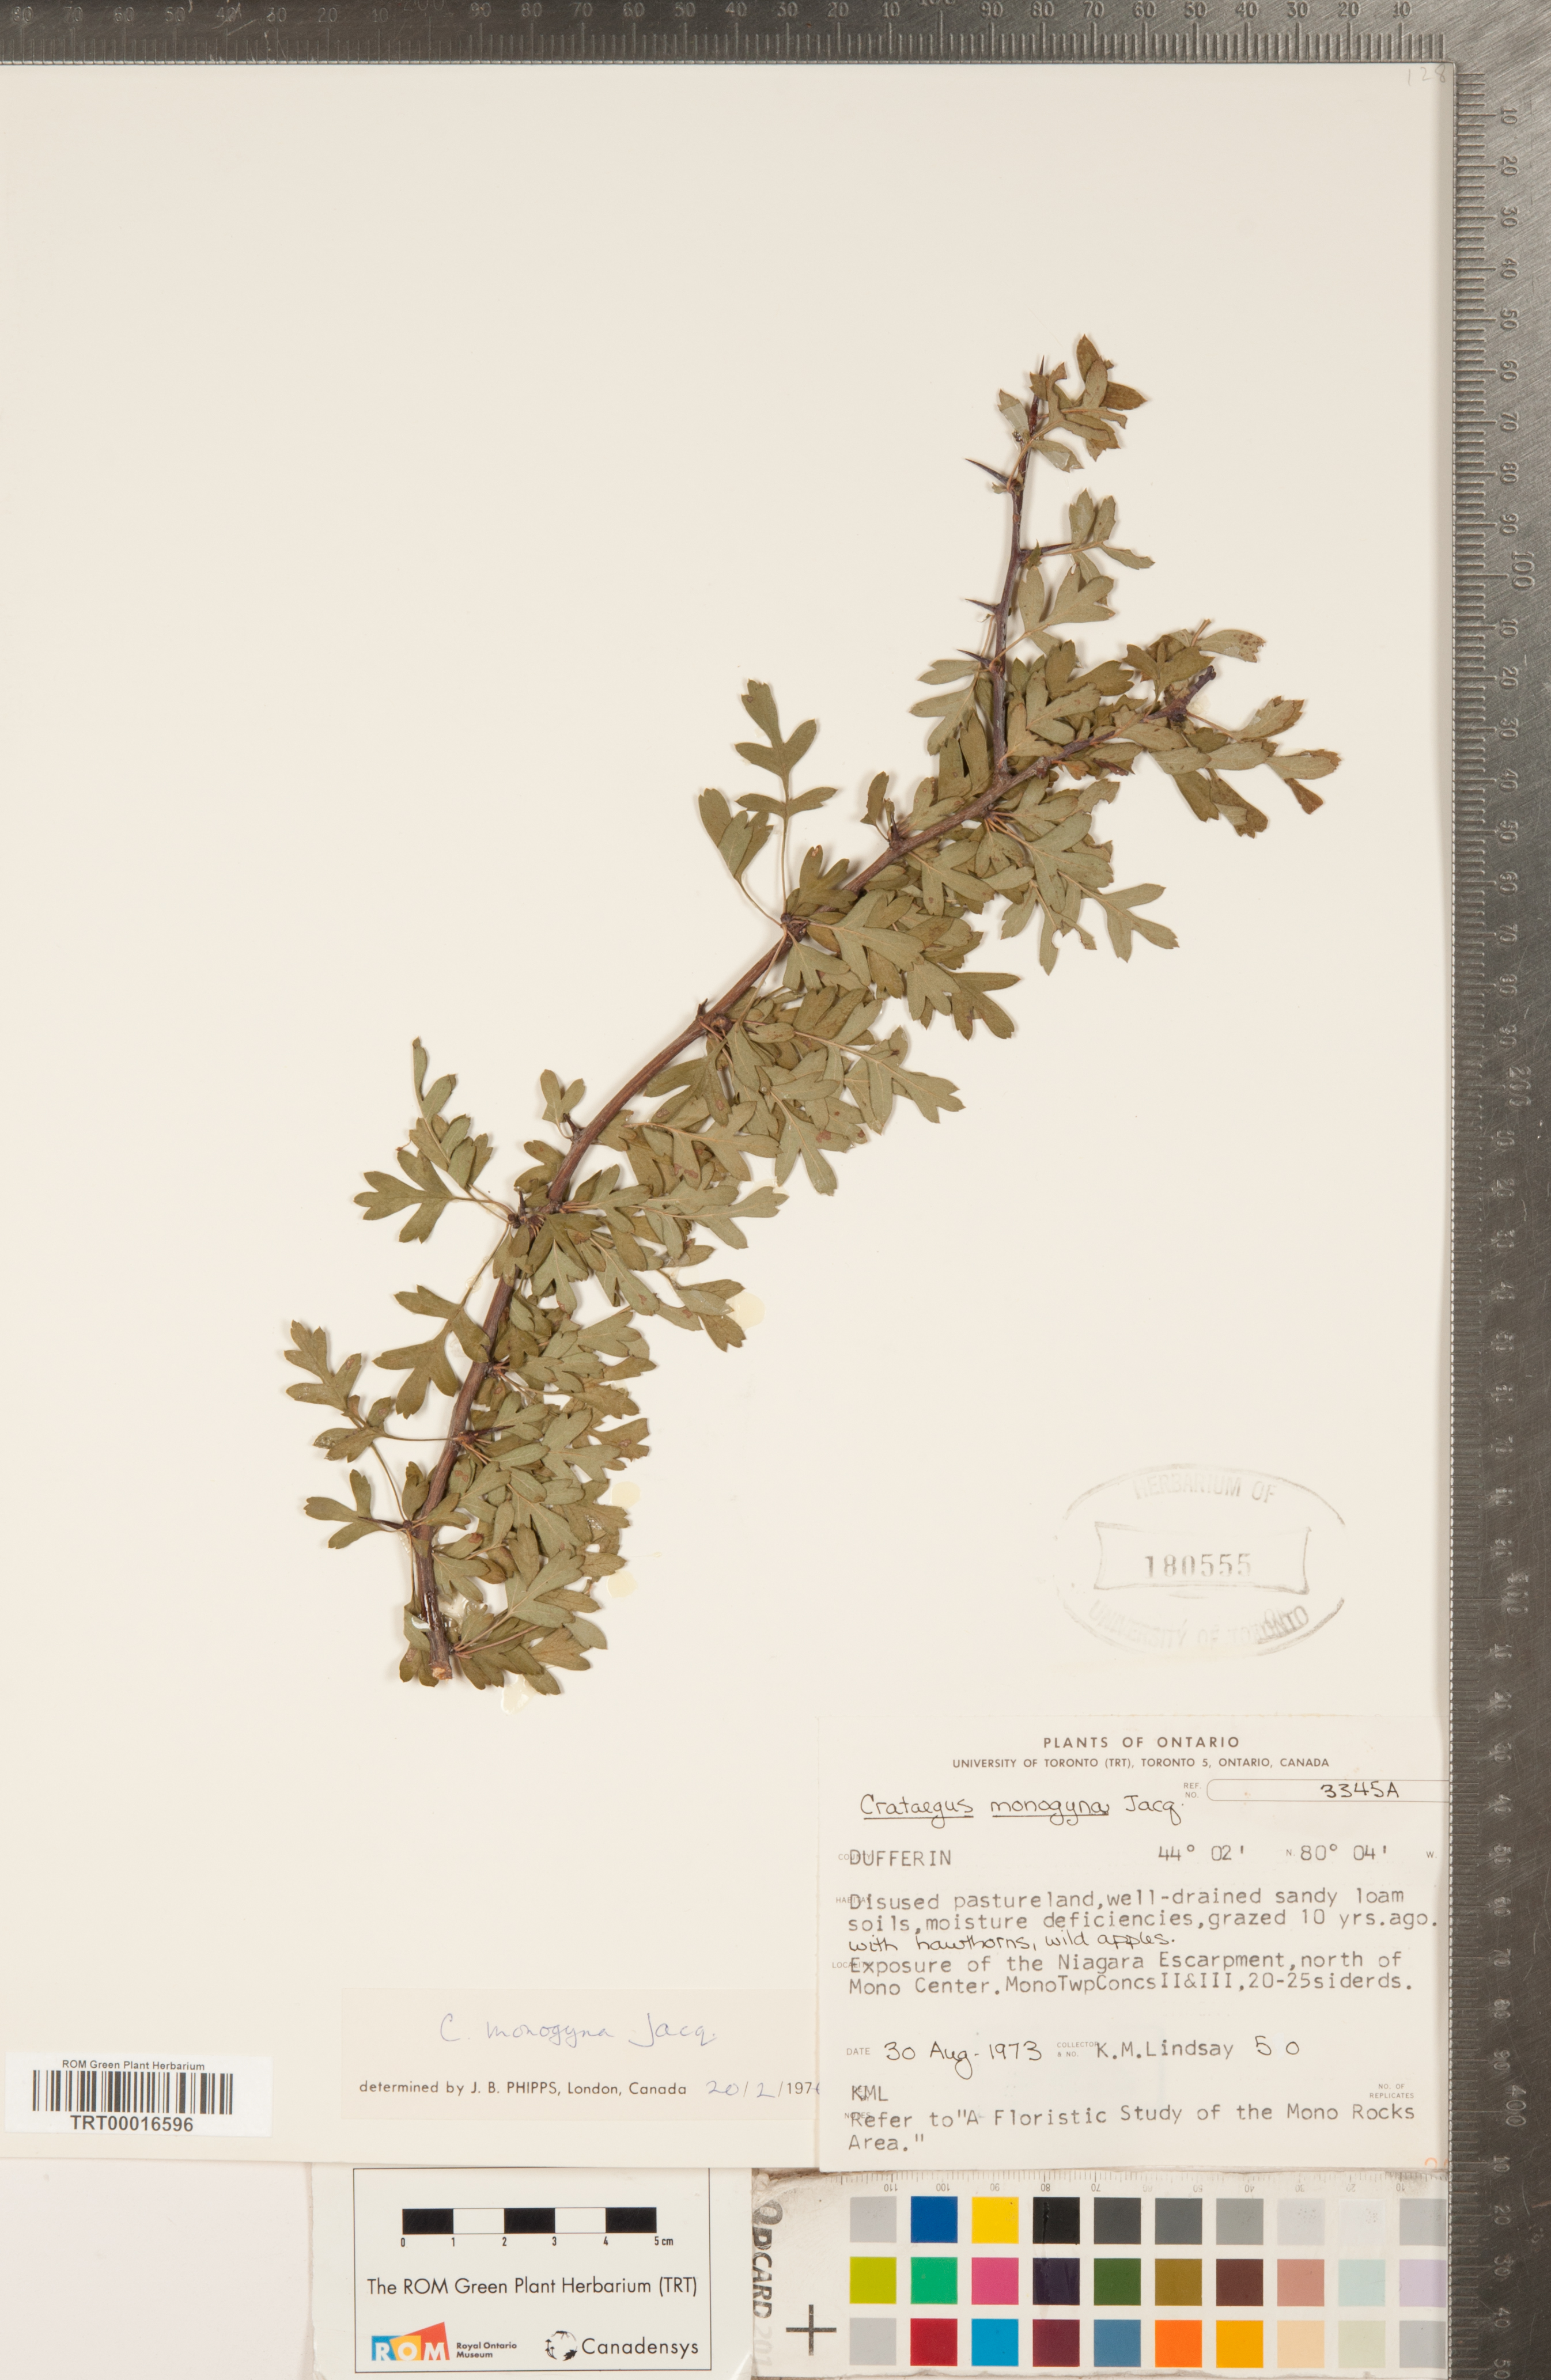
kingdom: Plantae
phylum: Tracheophyta
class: Magnoliopsida
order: Rosales
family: Rosaceae
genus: Crataegus
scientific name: Crataegus monogyna
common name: Hawthorn
